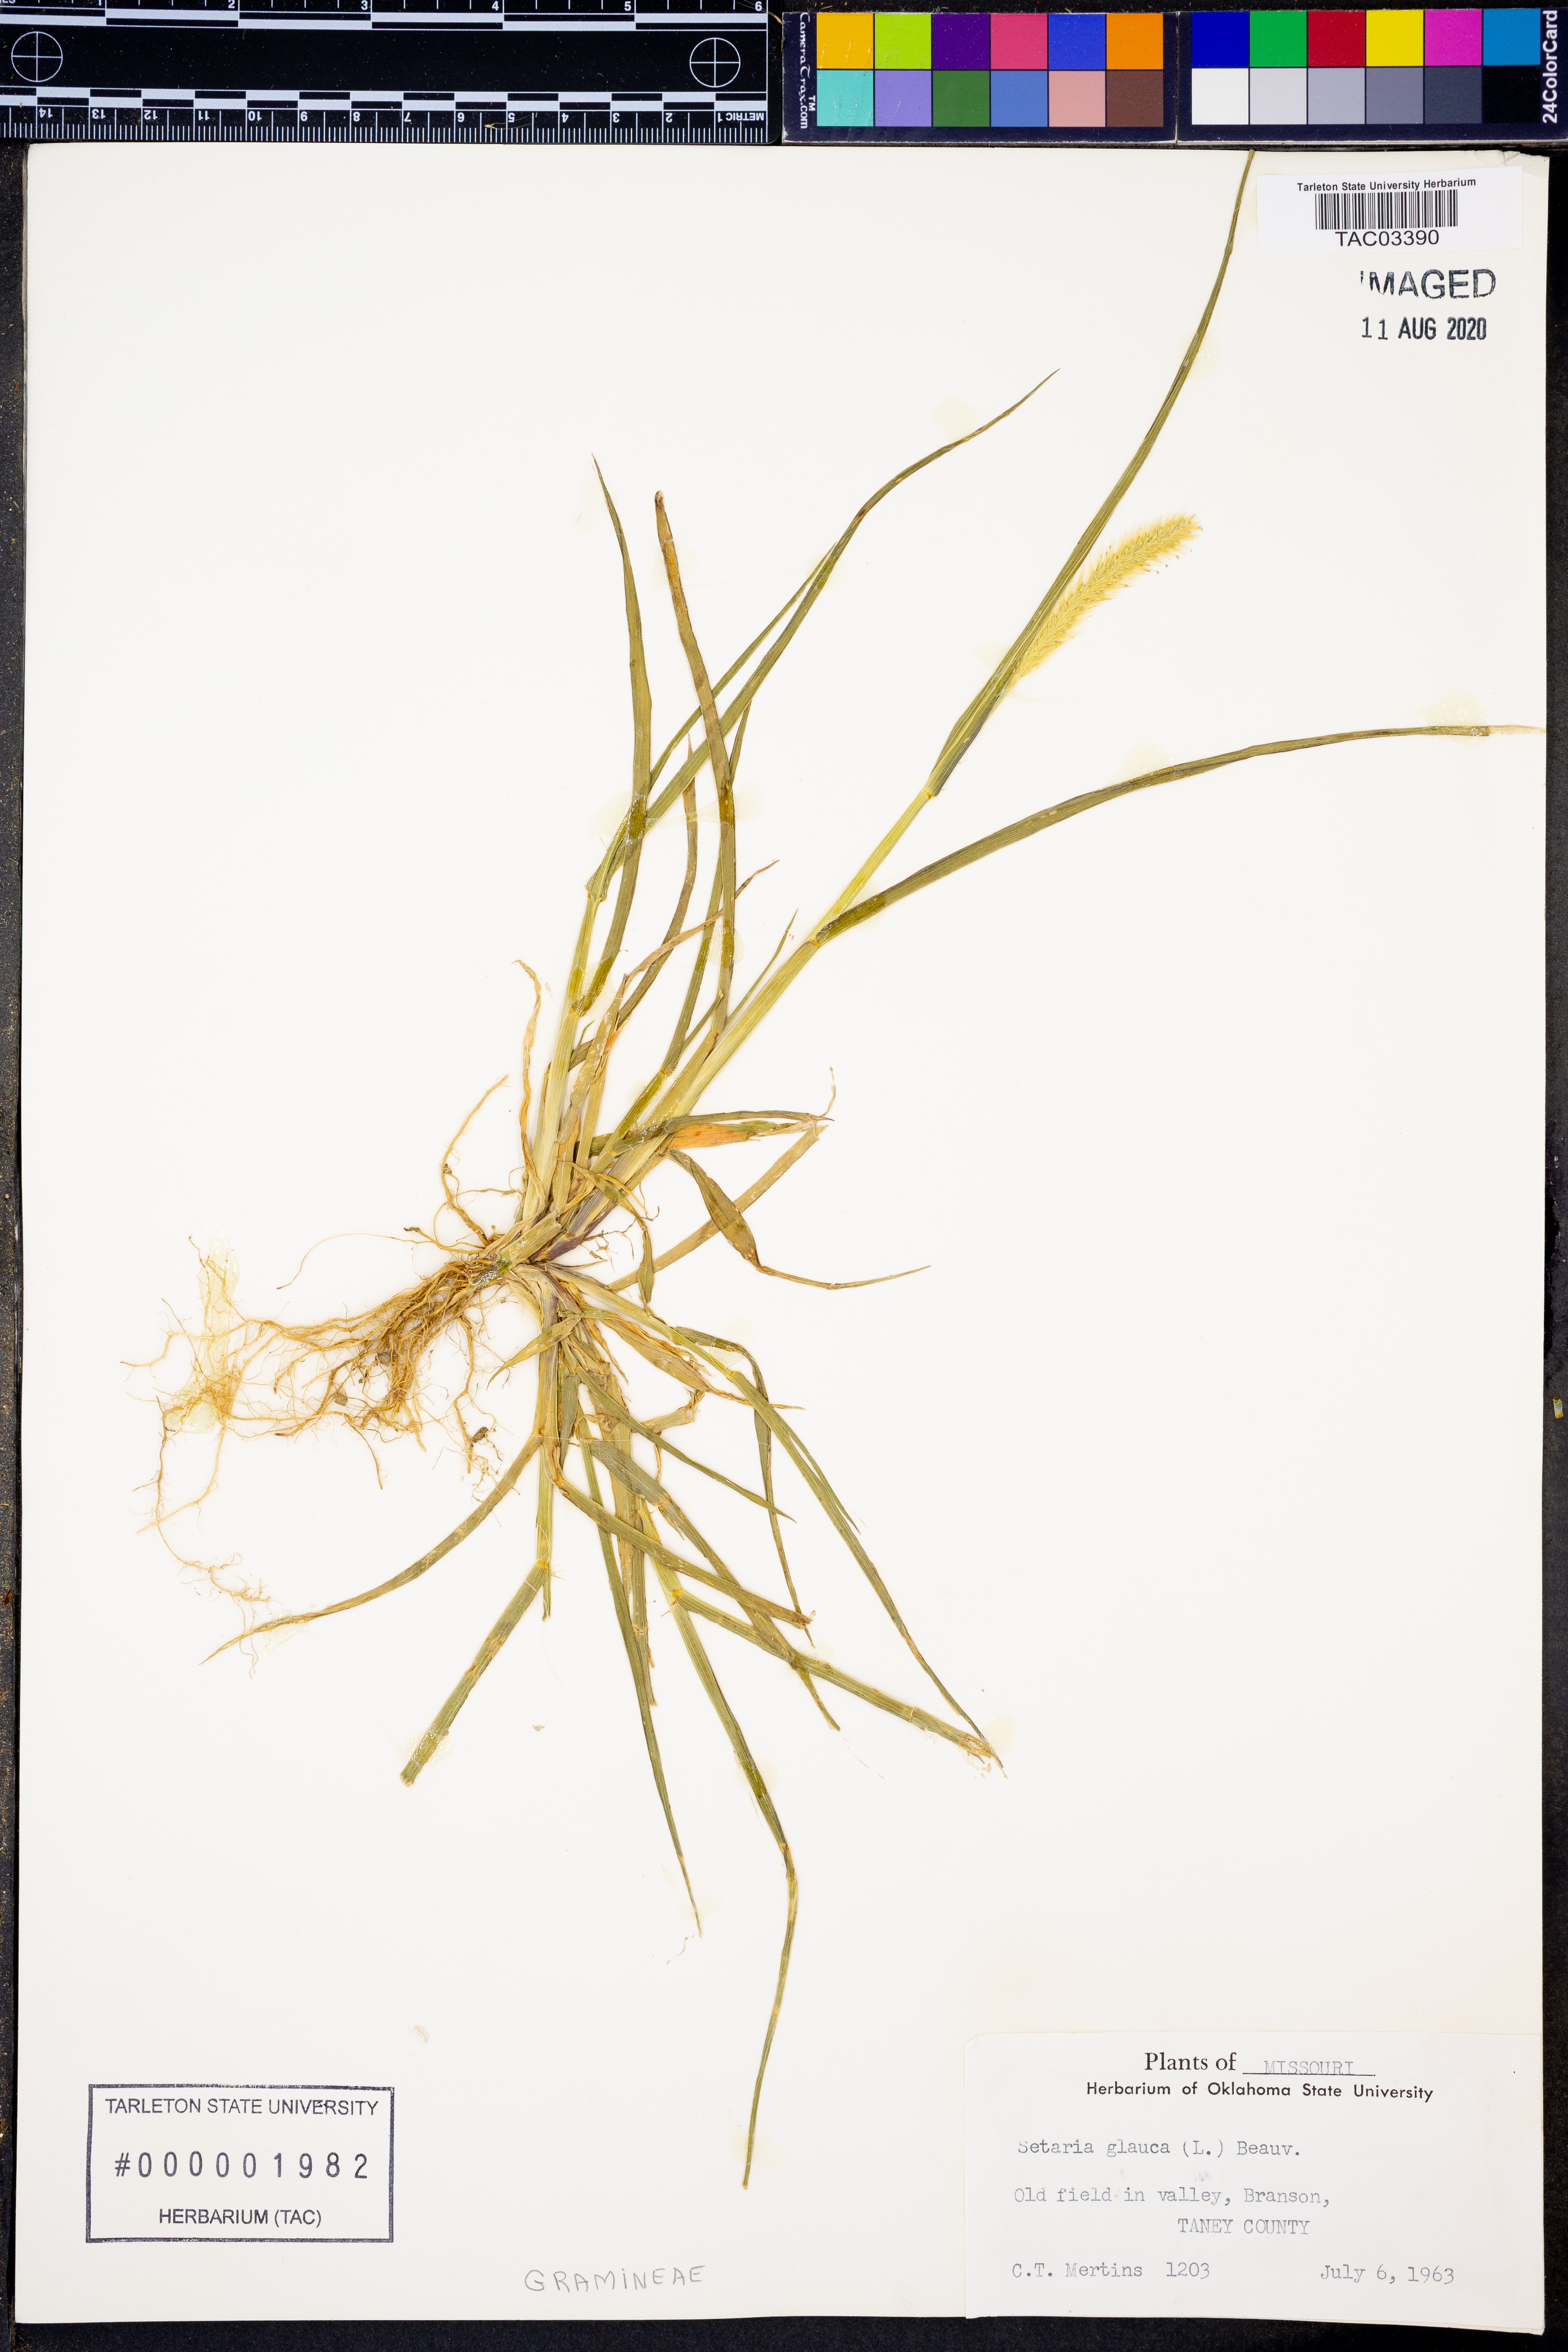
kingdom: Plantae
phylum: Tracheophyta
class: Liliopsida
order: Poales
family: Poaceae
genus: Cenchrus
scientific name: Cenchrus americanus
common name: Pearl millet
